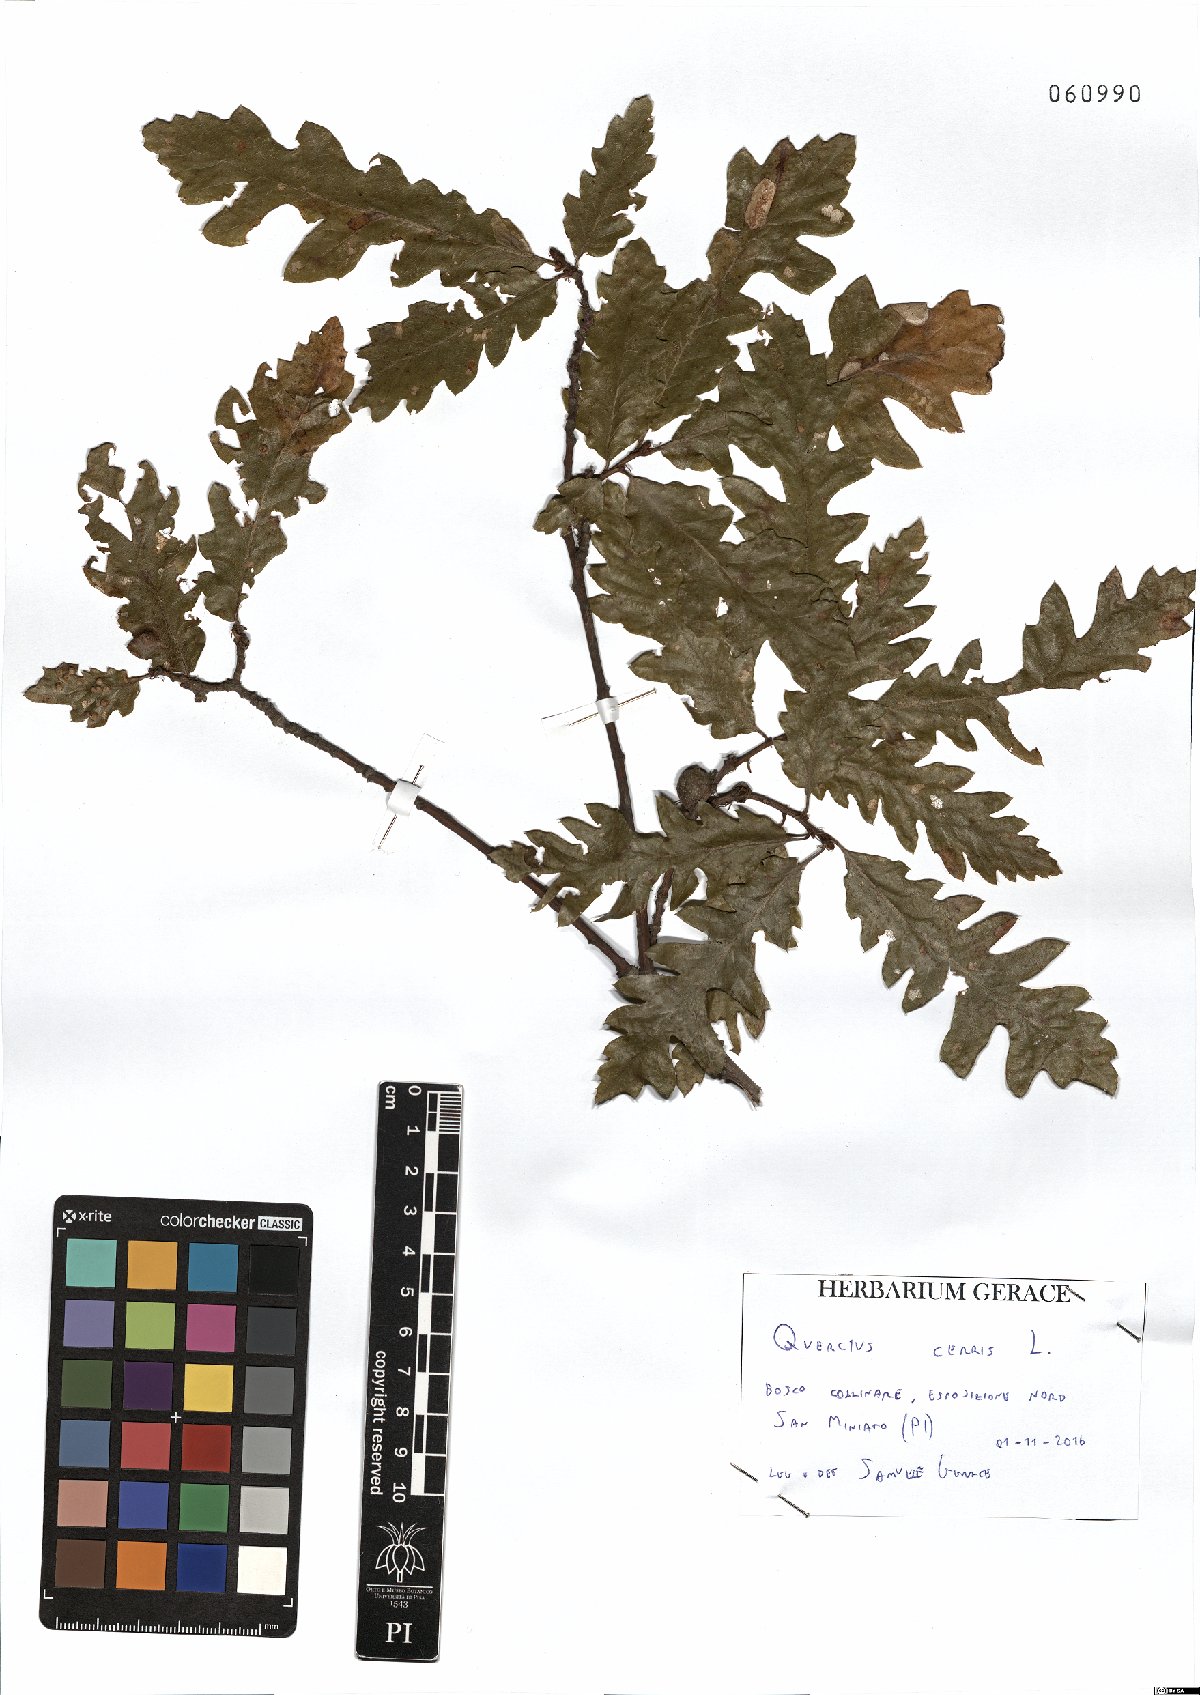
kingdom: Plantae
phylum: Tracheophyta
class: Magnoliopsida
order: Fagales
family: Fagaceae
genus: Quercus
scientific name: Quercus cerris
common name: Turkey oak
